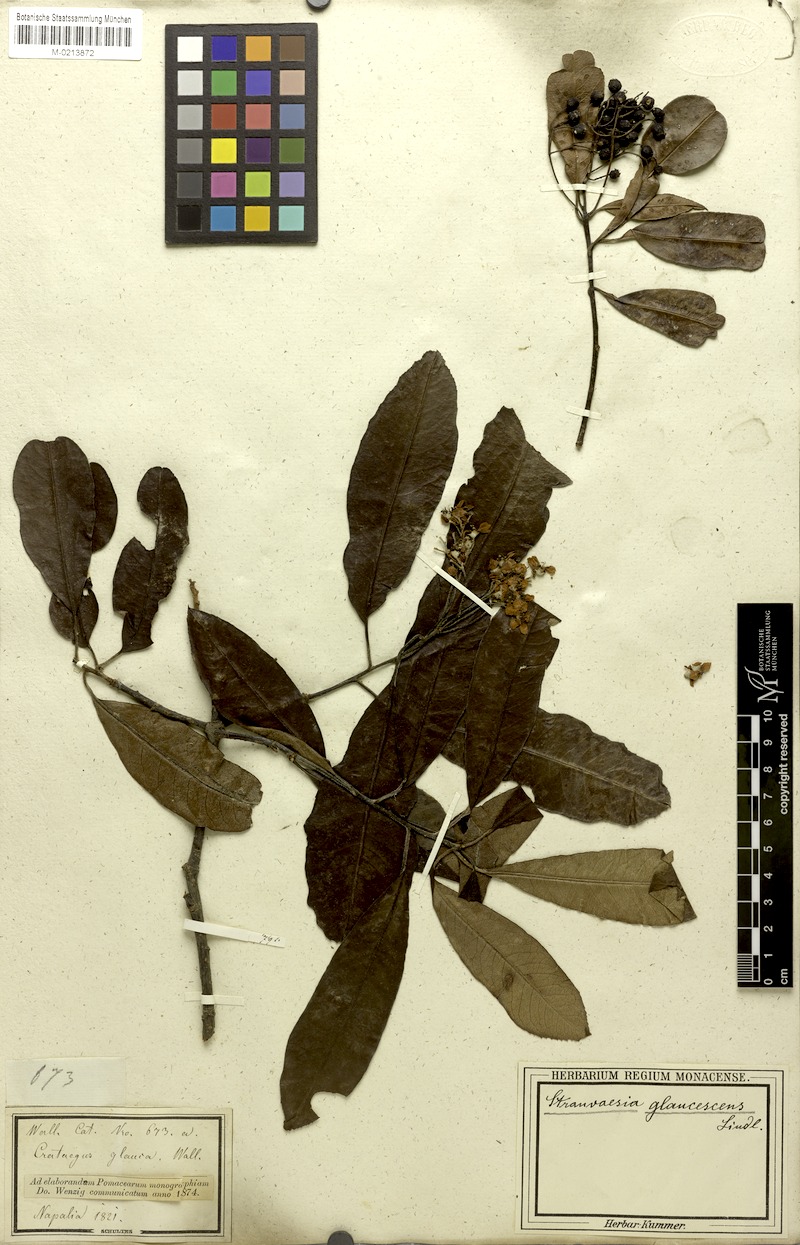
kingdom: Plantae
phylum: Tracheophyta
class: Magnoliopsida
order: Rosales
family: Rosaceae
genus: Stranvaesia
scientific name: Stranvaesia nussia
